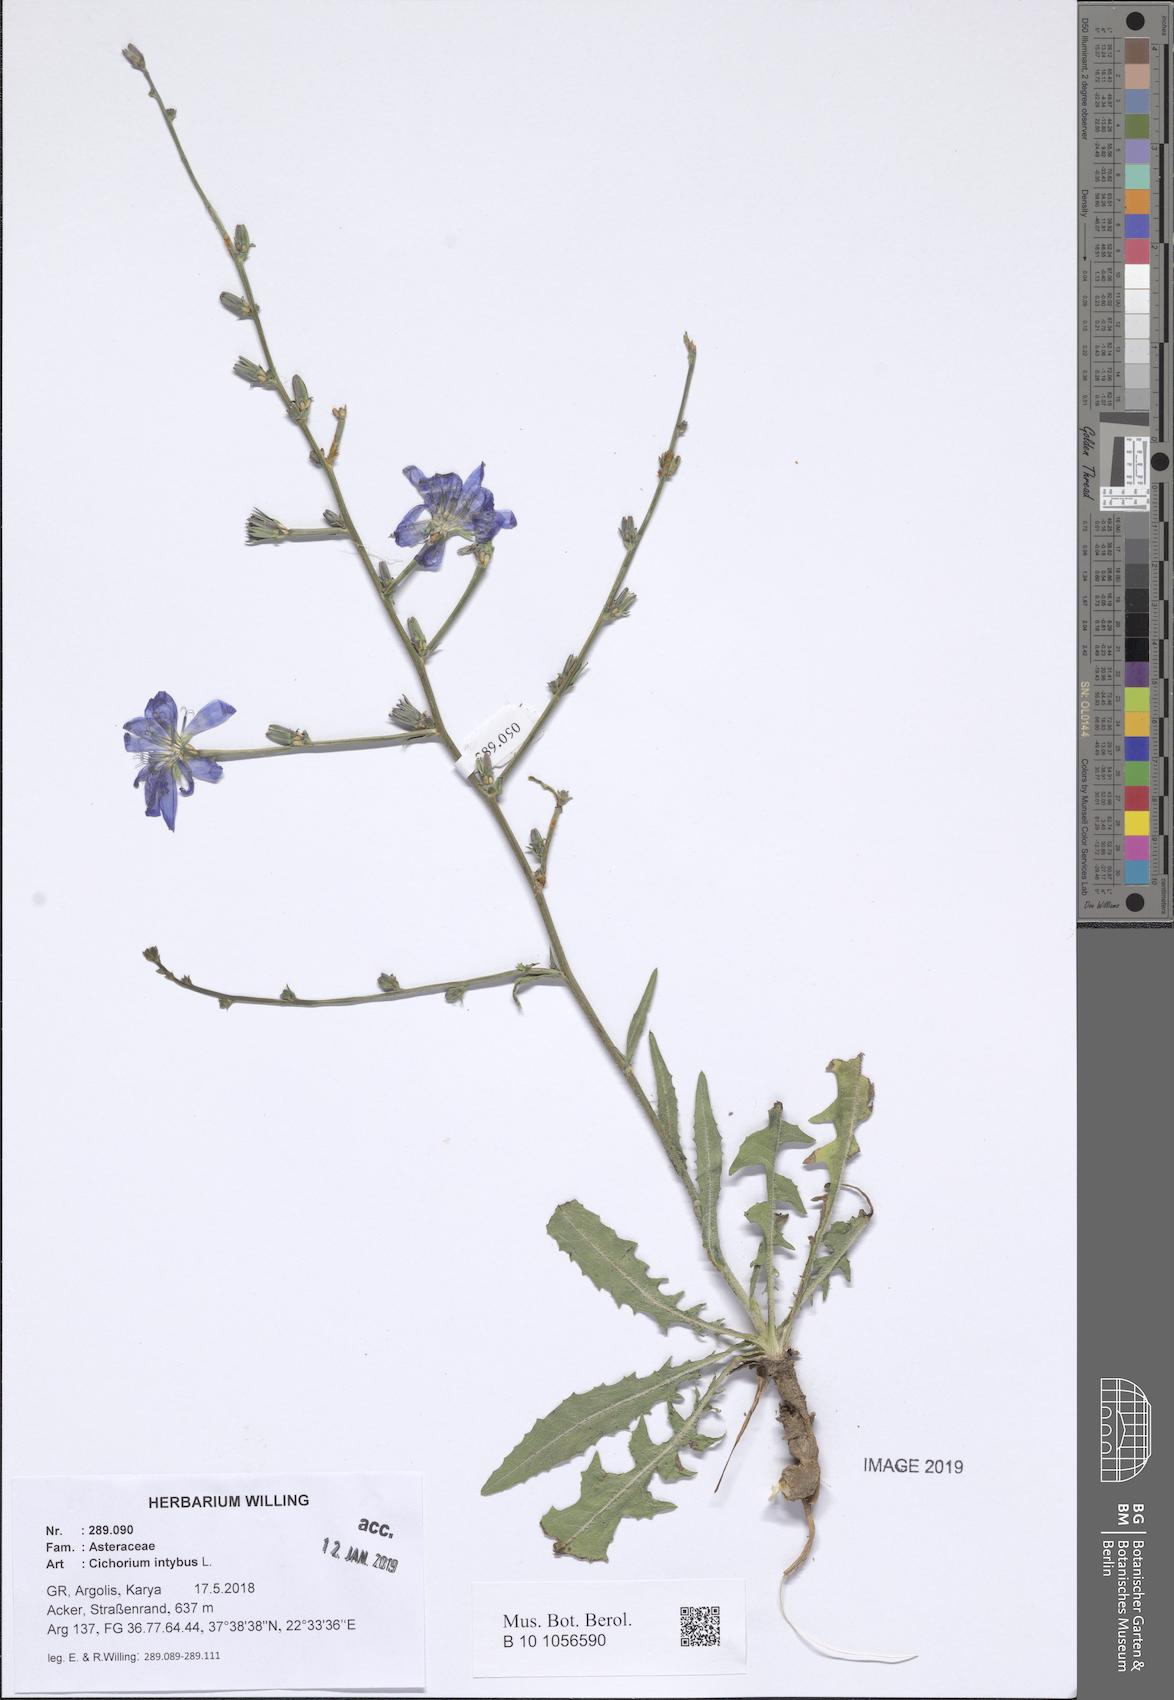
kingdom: Plantae
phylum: Tracheophyta
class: Magnoliopsida
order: Asterales
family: Asteraceae
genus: Cichorium
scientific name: Cichorium intybus
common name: Chicory
